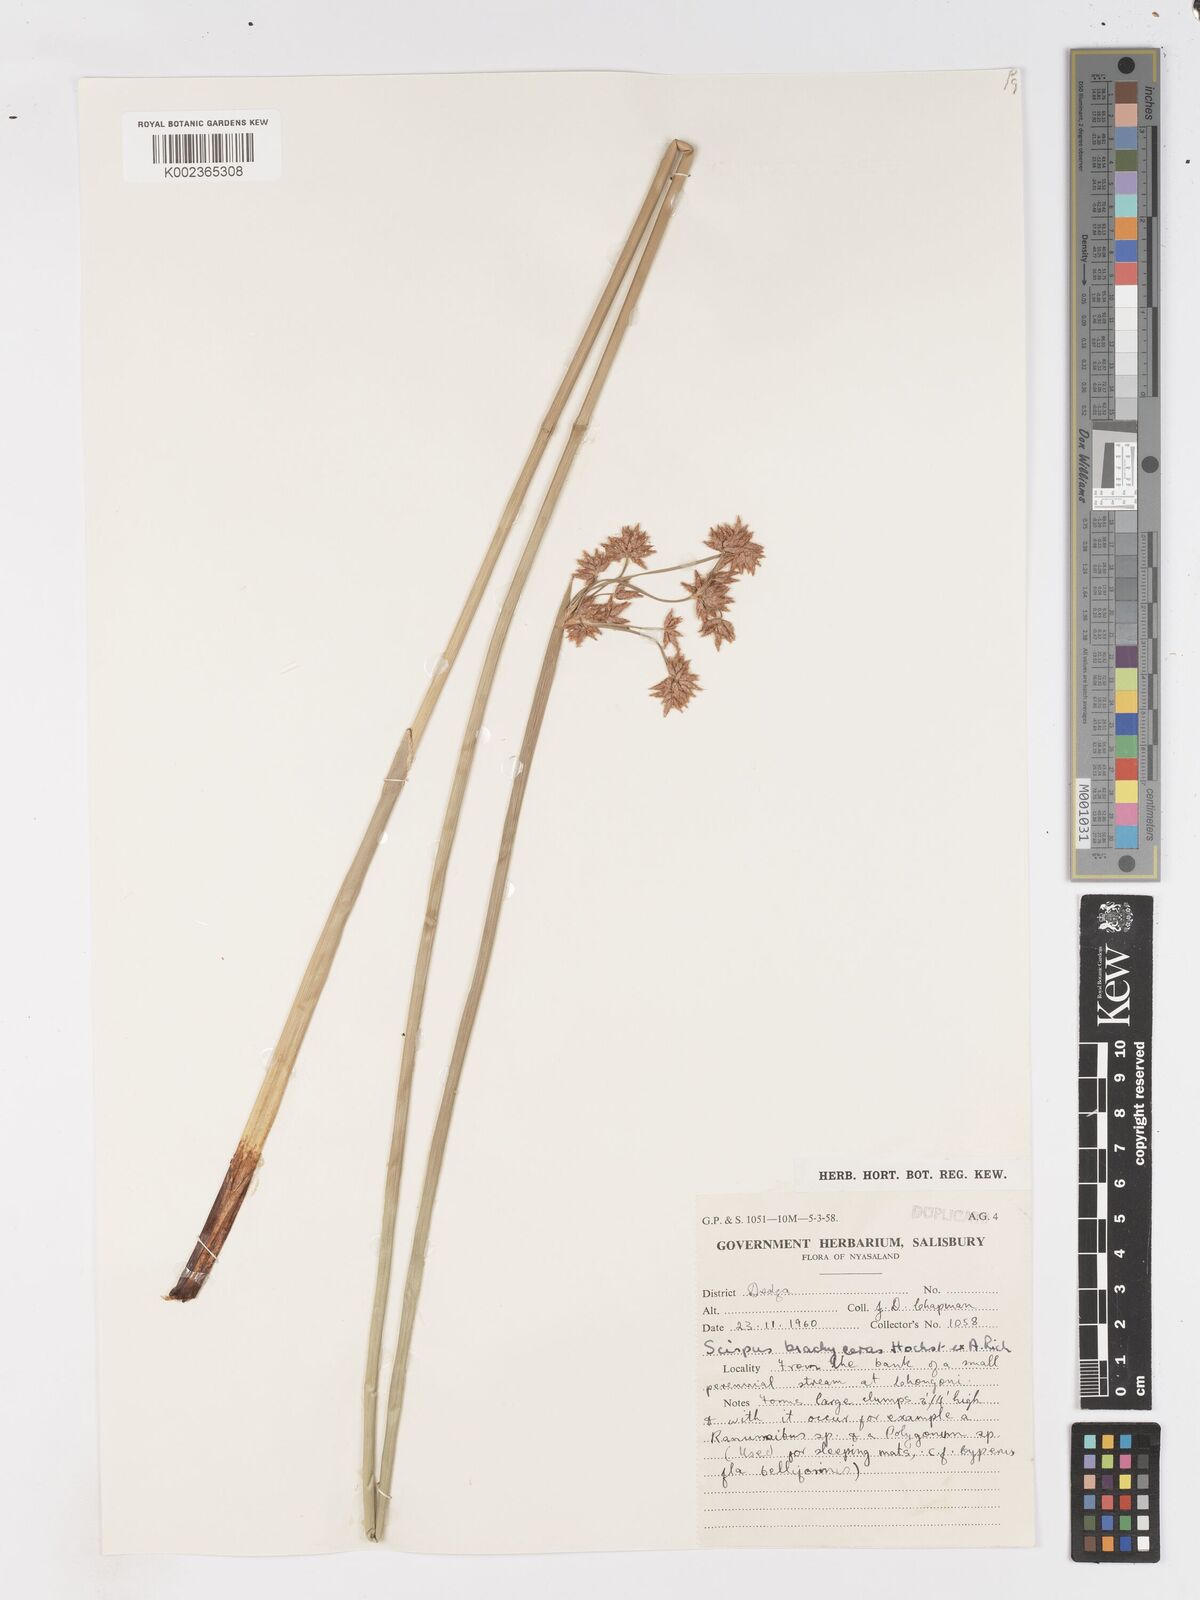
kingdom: Plantae
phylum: Tracheophyta
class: Liliopsida
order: Poales
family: Cyperaceae
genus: Schoenoplectus
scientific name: Schoenoplectus
